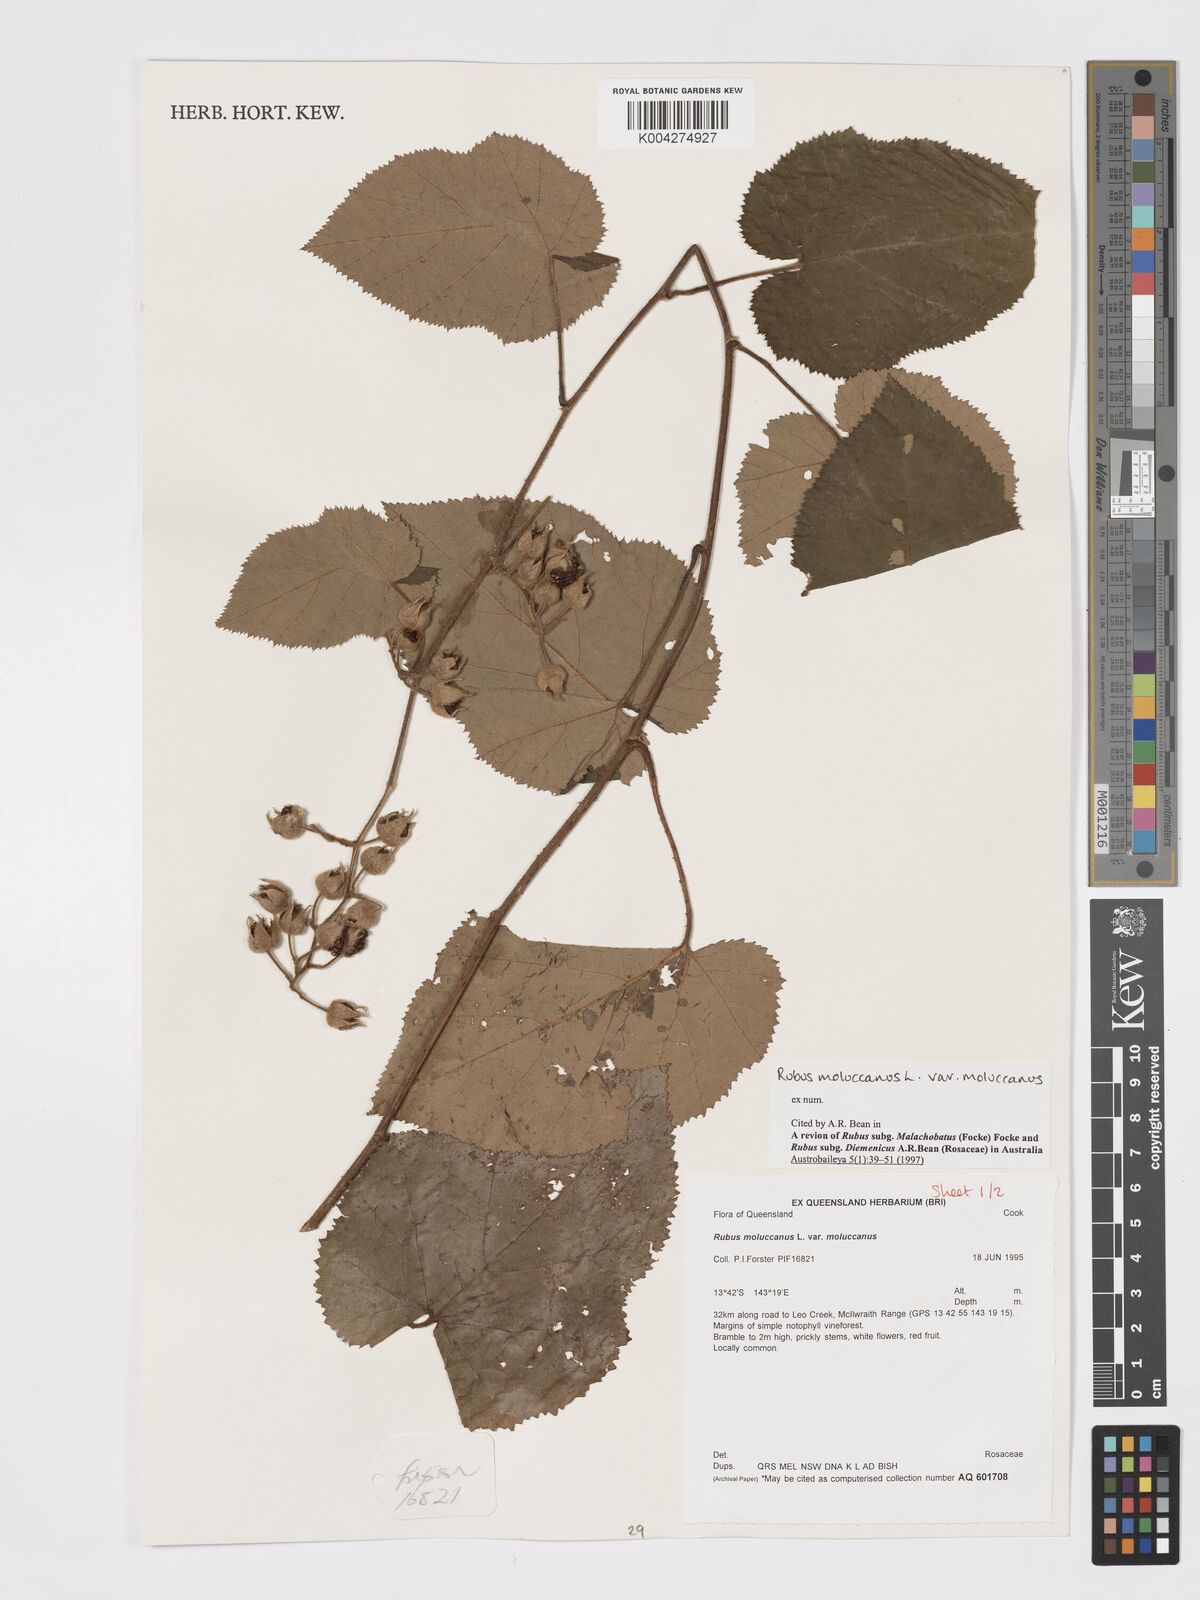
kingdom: Plantae
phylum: Tracheophyta
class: Magnoliopsida
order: Rosales
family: Rosaceae
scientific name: Rosaceae
